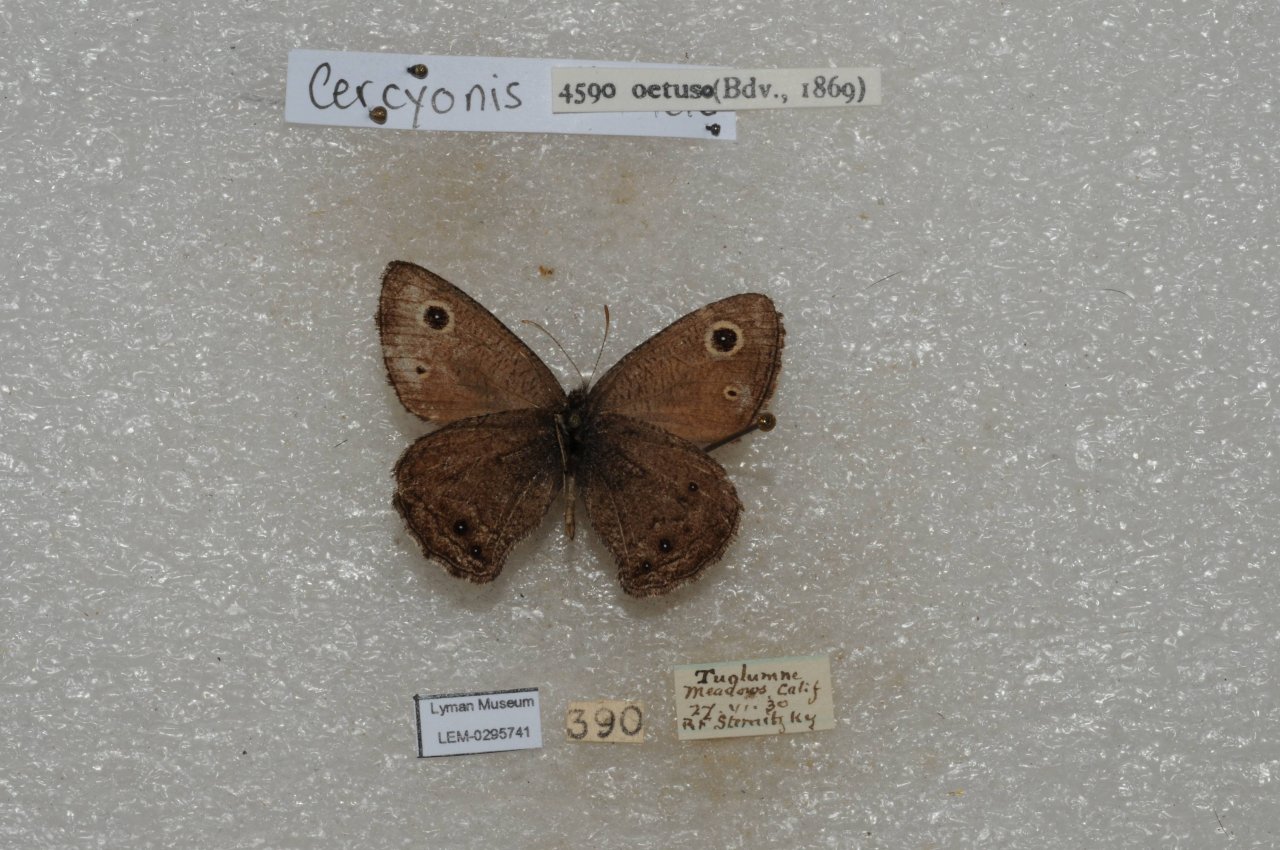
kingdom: Animalia
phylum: Arthropoda
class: Insecta
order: Lepidoptera
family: Nymphalidae
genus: Cercyonis
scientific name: Cercyonis oetus
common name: Small Wood-Nymph
